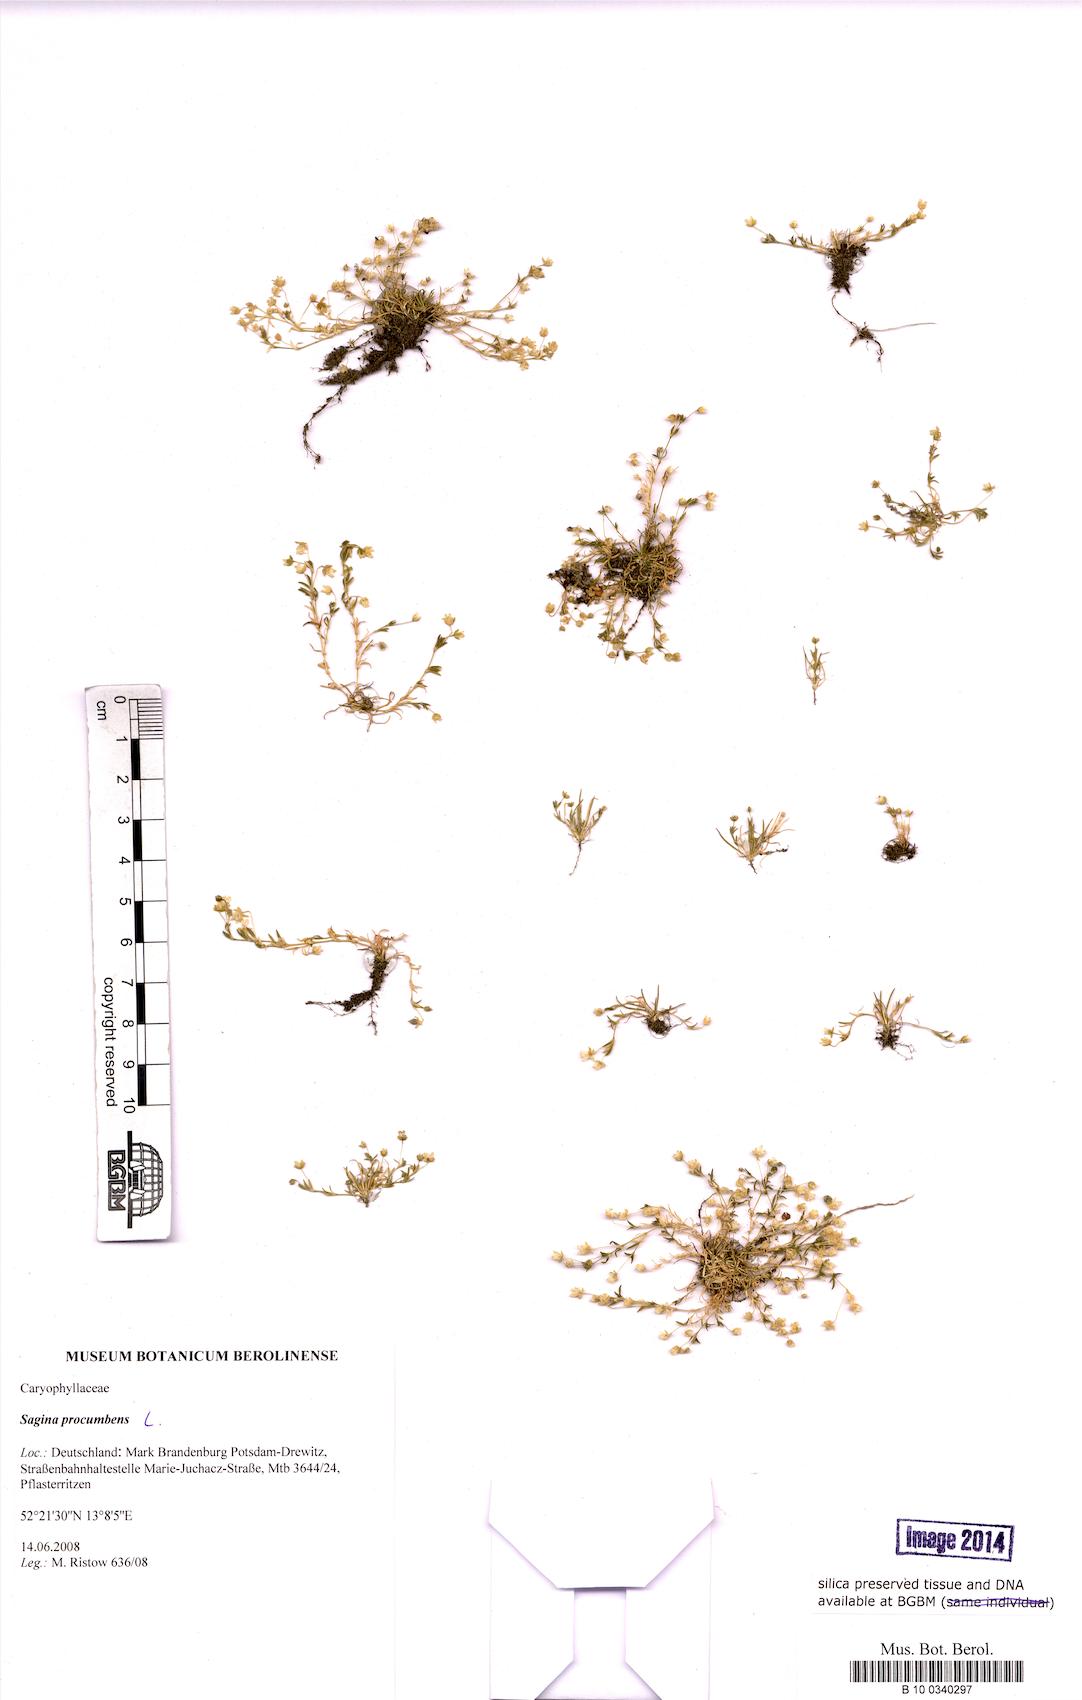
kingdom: Plantae
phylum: Tracheophyta
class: Magnoliopsida
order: Caryophyllales
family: Caryophyllaceae
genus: Sagina
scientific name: Sagina procumbens
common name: Procumbent pearlwort
